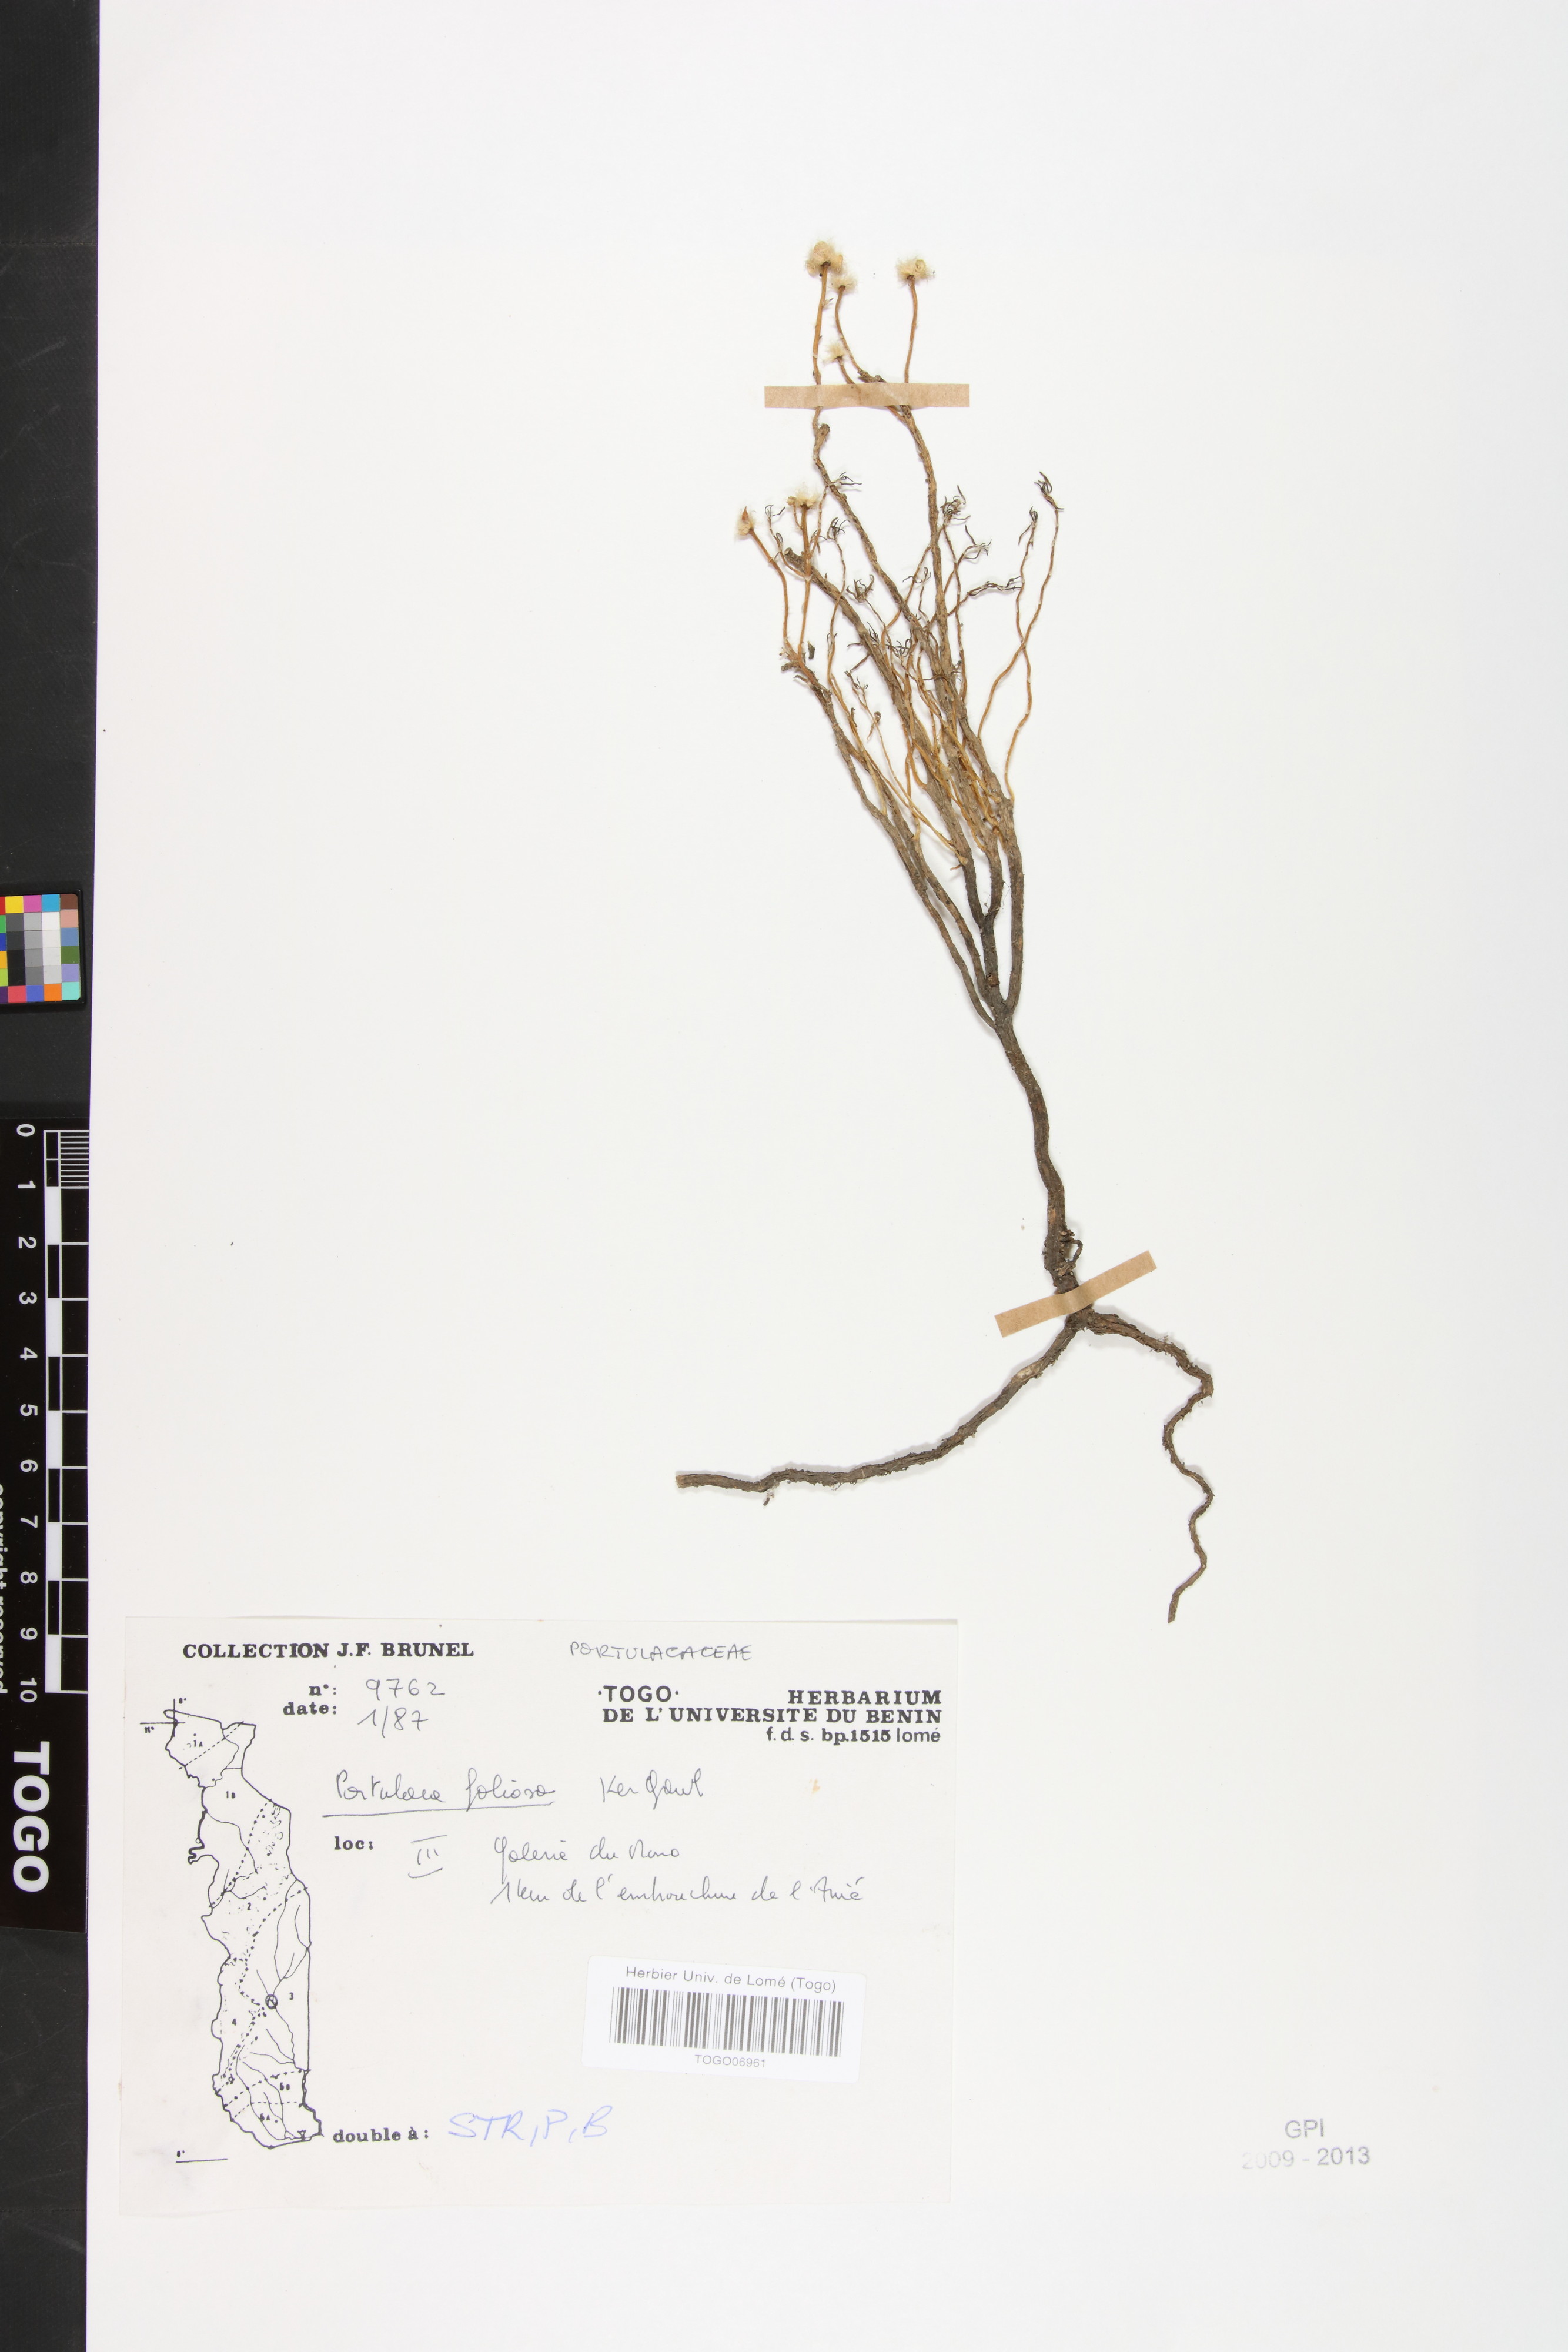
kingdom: Plantae
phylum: Tracheophyta
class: Magnoliopsida
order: Caryophyllales
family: Portulacaceae
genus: Portulaca
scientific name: Portulaca foliosa
